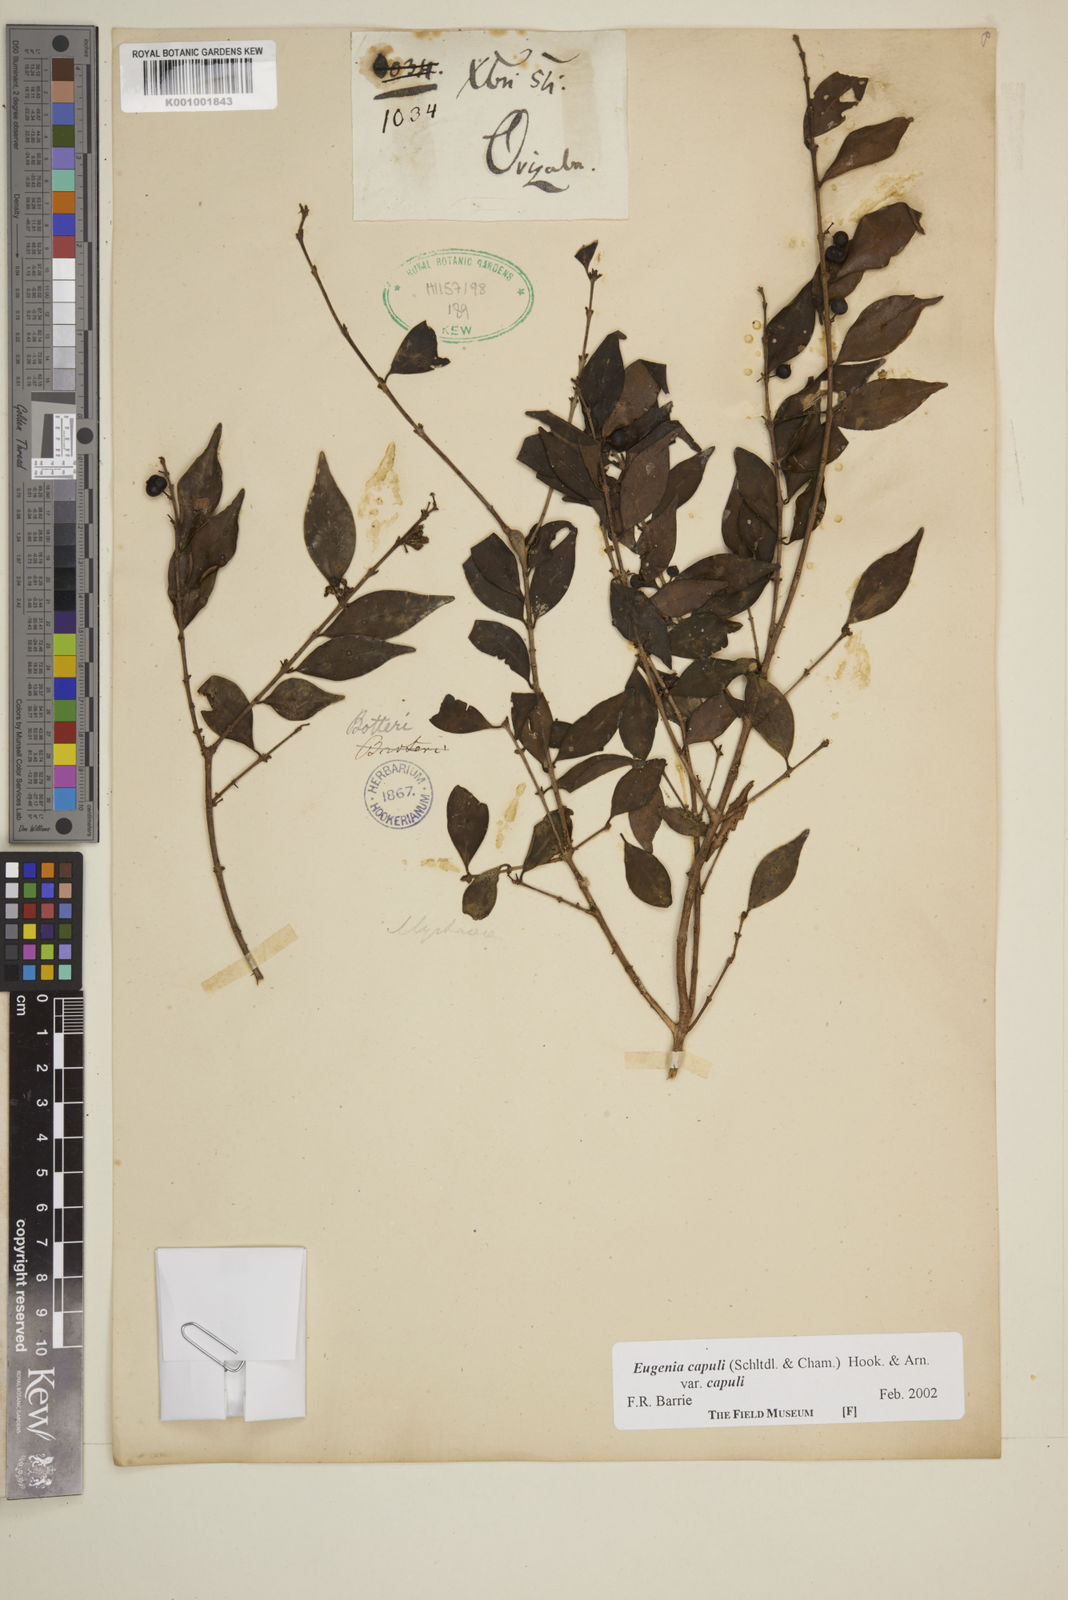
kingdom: Plantae
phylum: Tracheophyta
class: Magnoliopsida
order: Myrtales
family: Myrtaceae
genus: Eugenia
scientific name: Eugenia capuli
